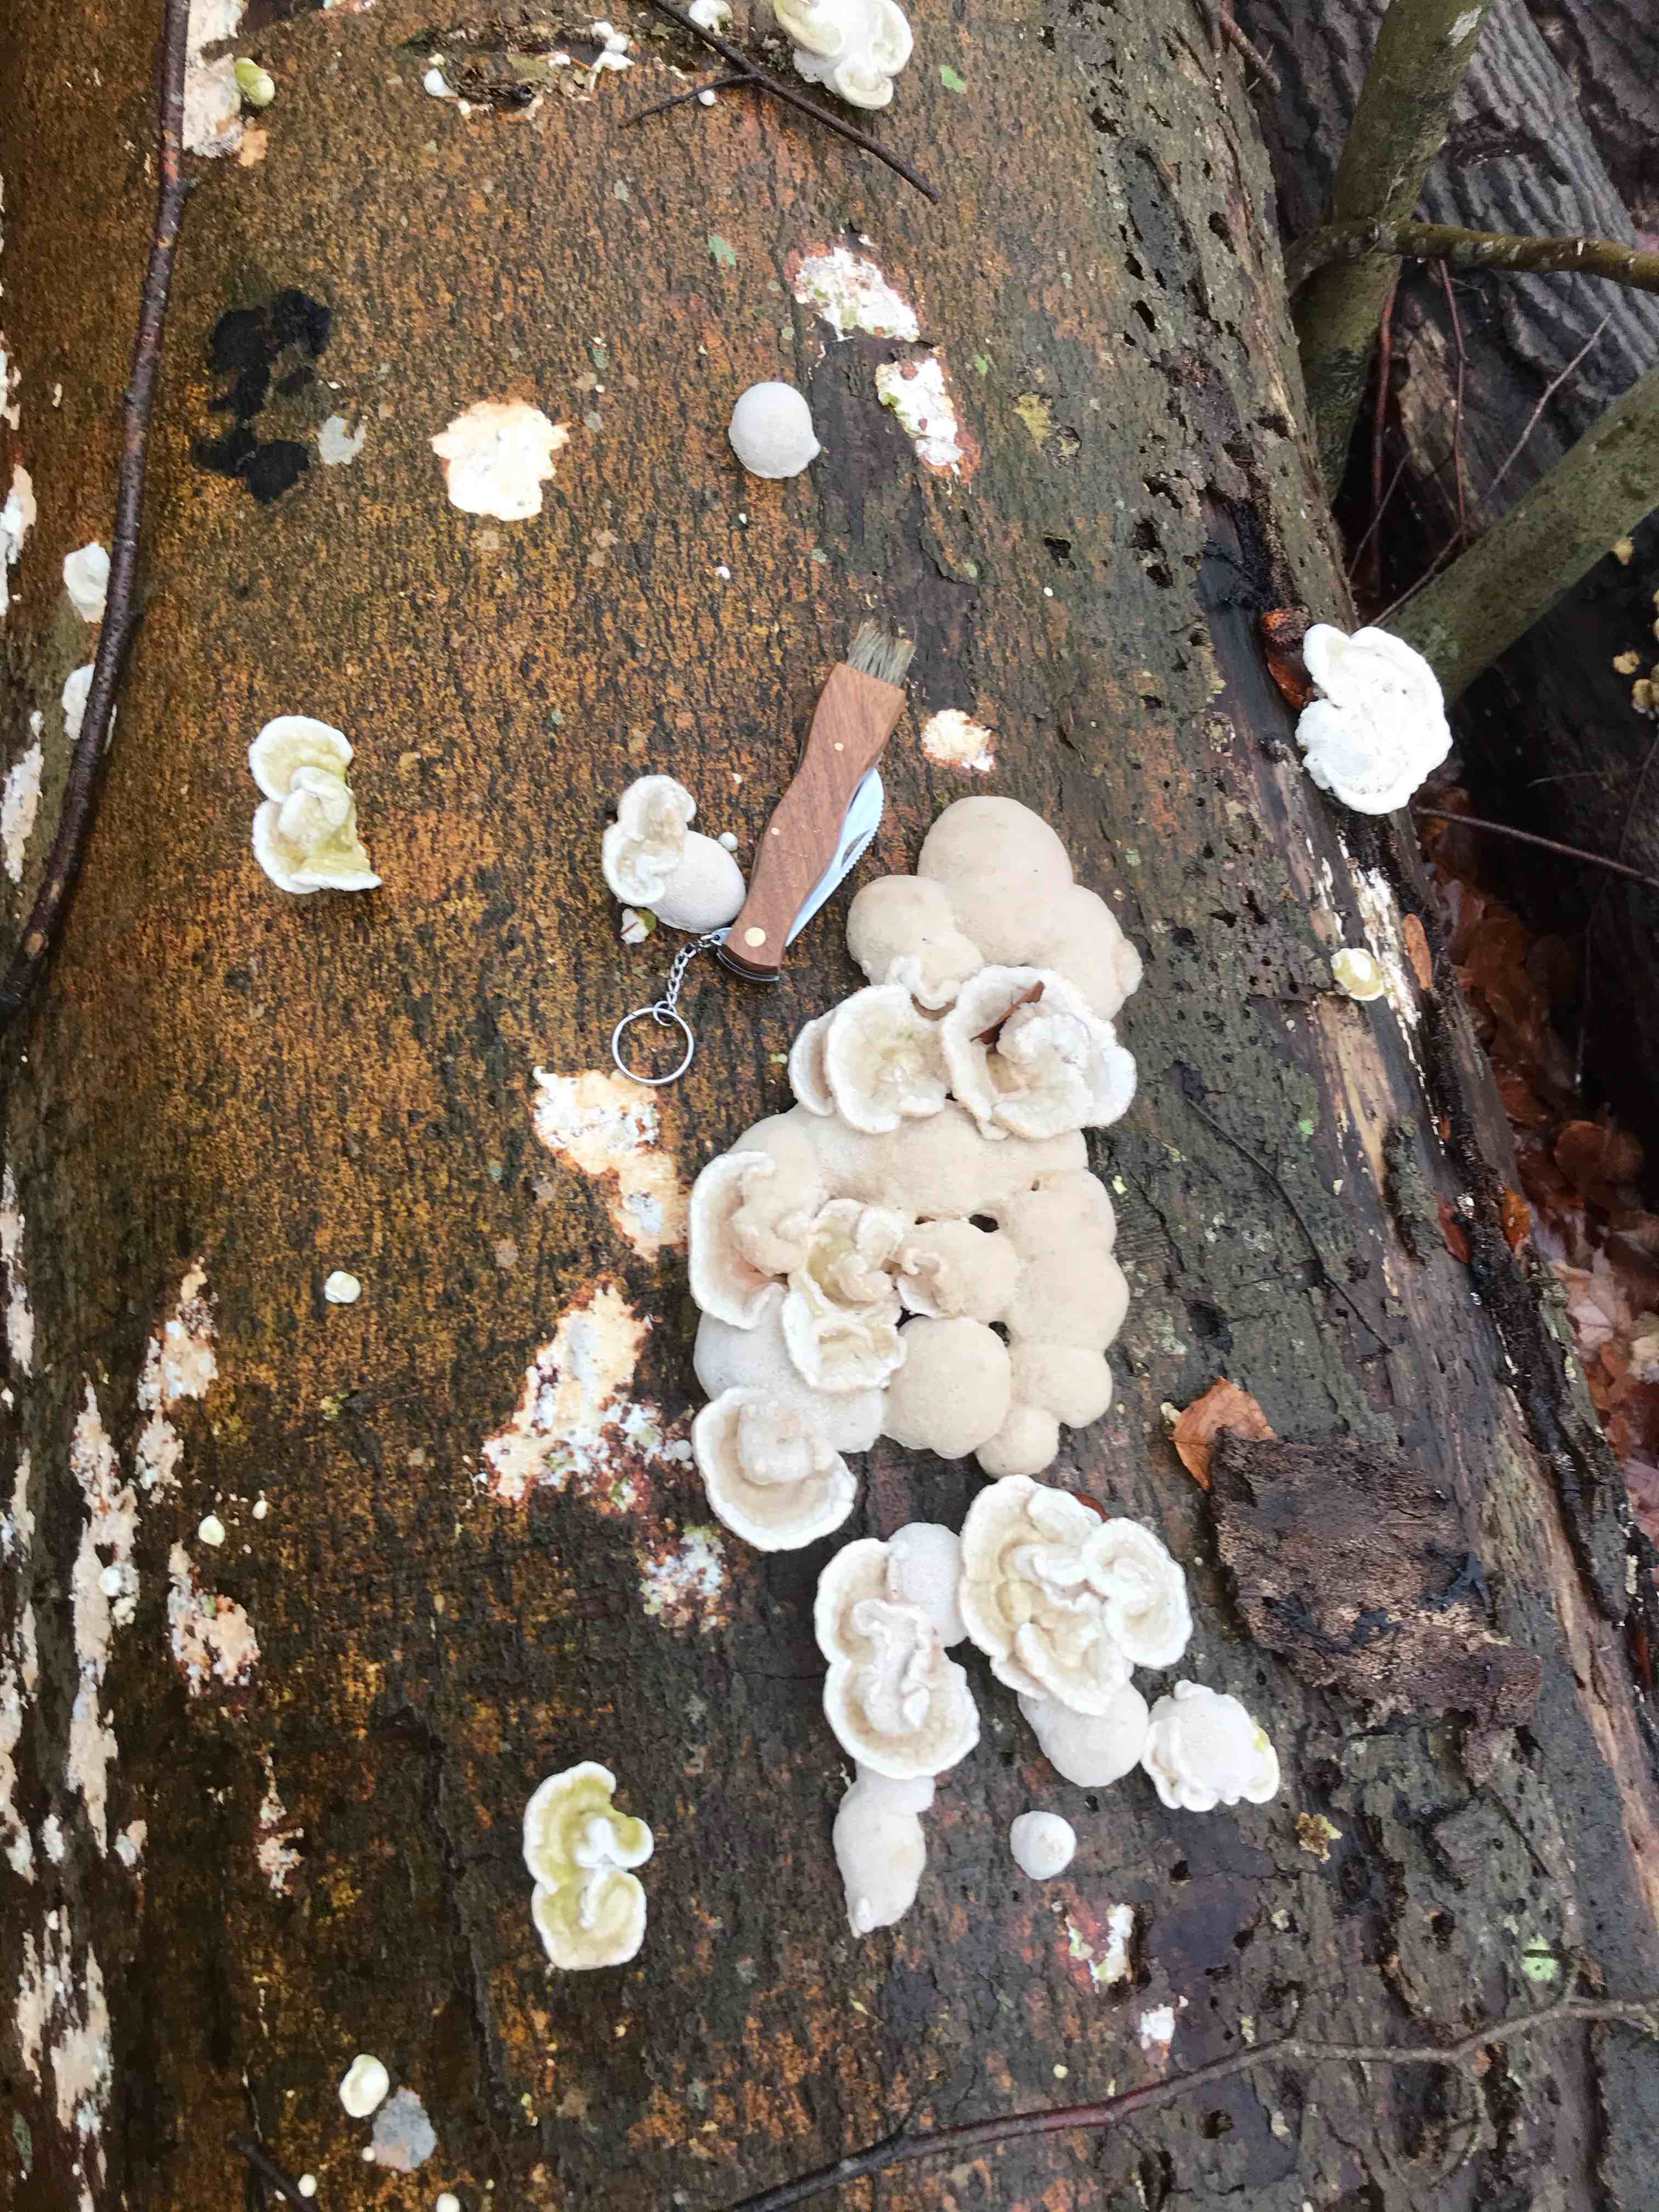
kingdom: Fungi
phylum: Basidiomycota
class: Agaricomycetes
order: Polyporales
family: Polyporaceae
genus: Trametes
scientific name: Trametes hirsuta
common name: håret læderporesvamp
